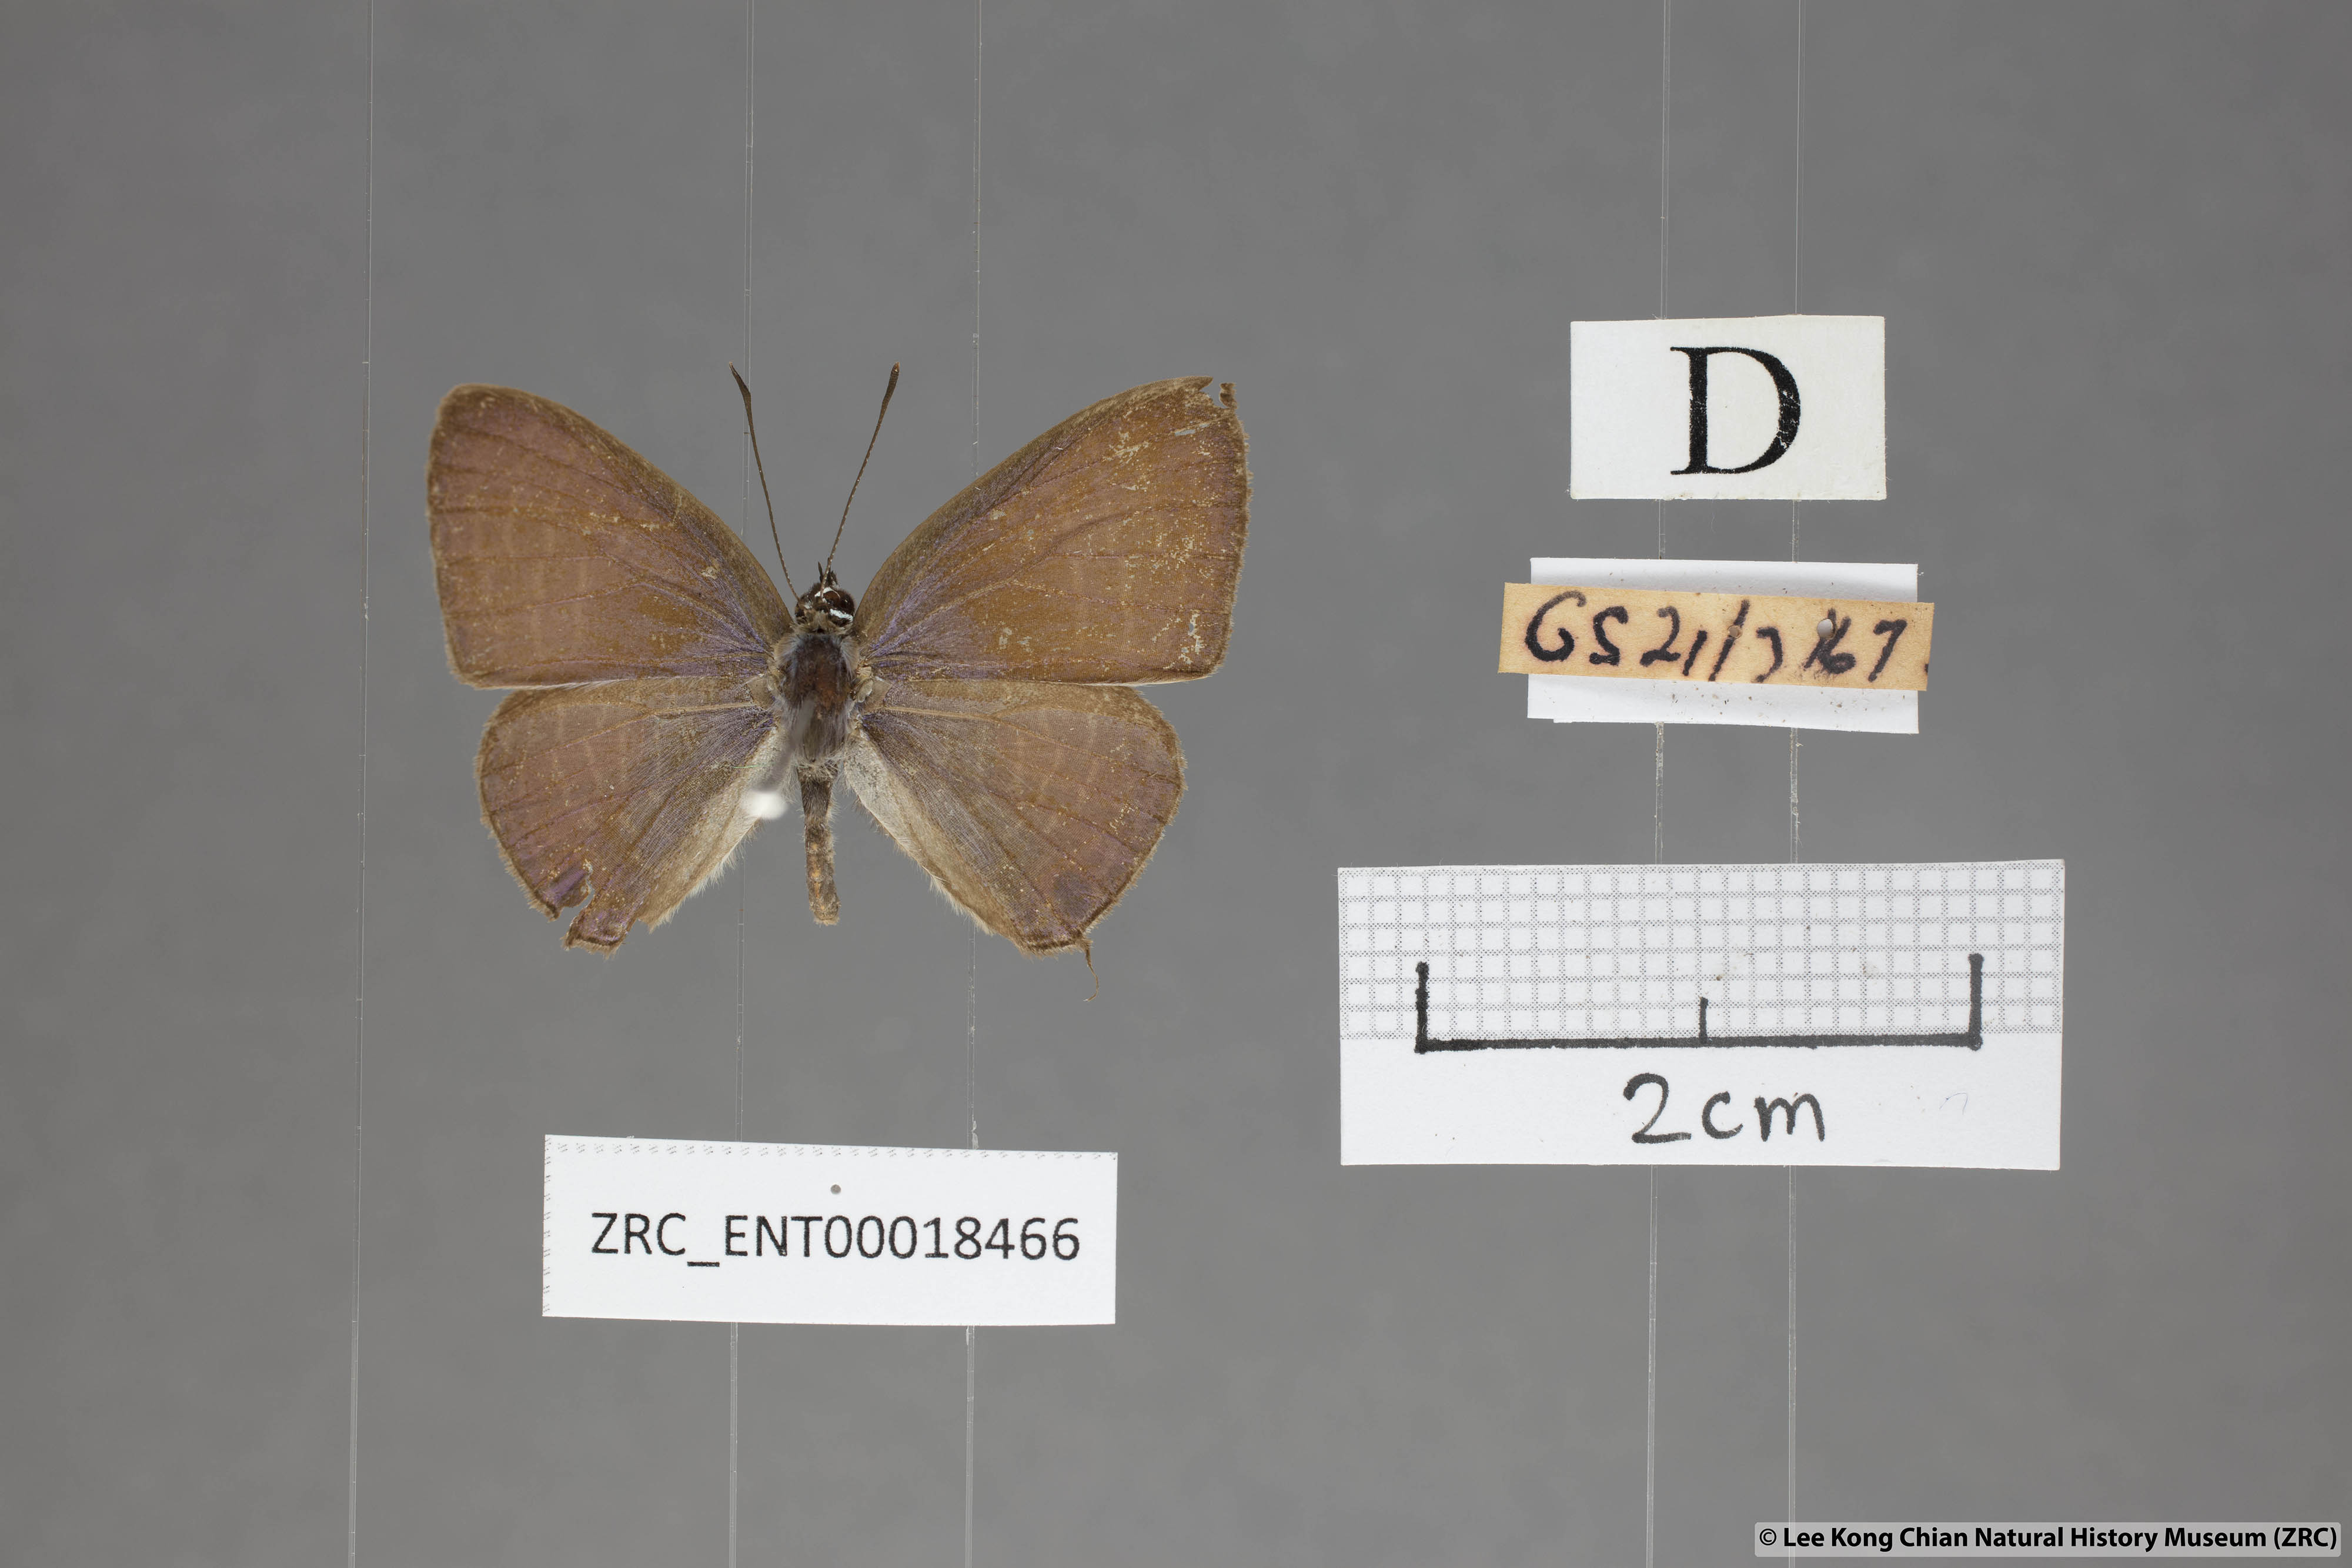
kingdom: Animalia
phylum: Arthropoda
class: Insecta
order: Lepidoptera
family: Lycaenidae
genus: Nacaduba
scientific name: Nacaduba solta
